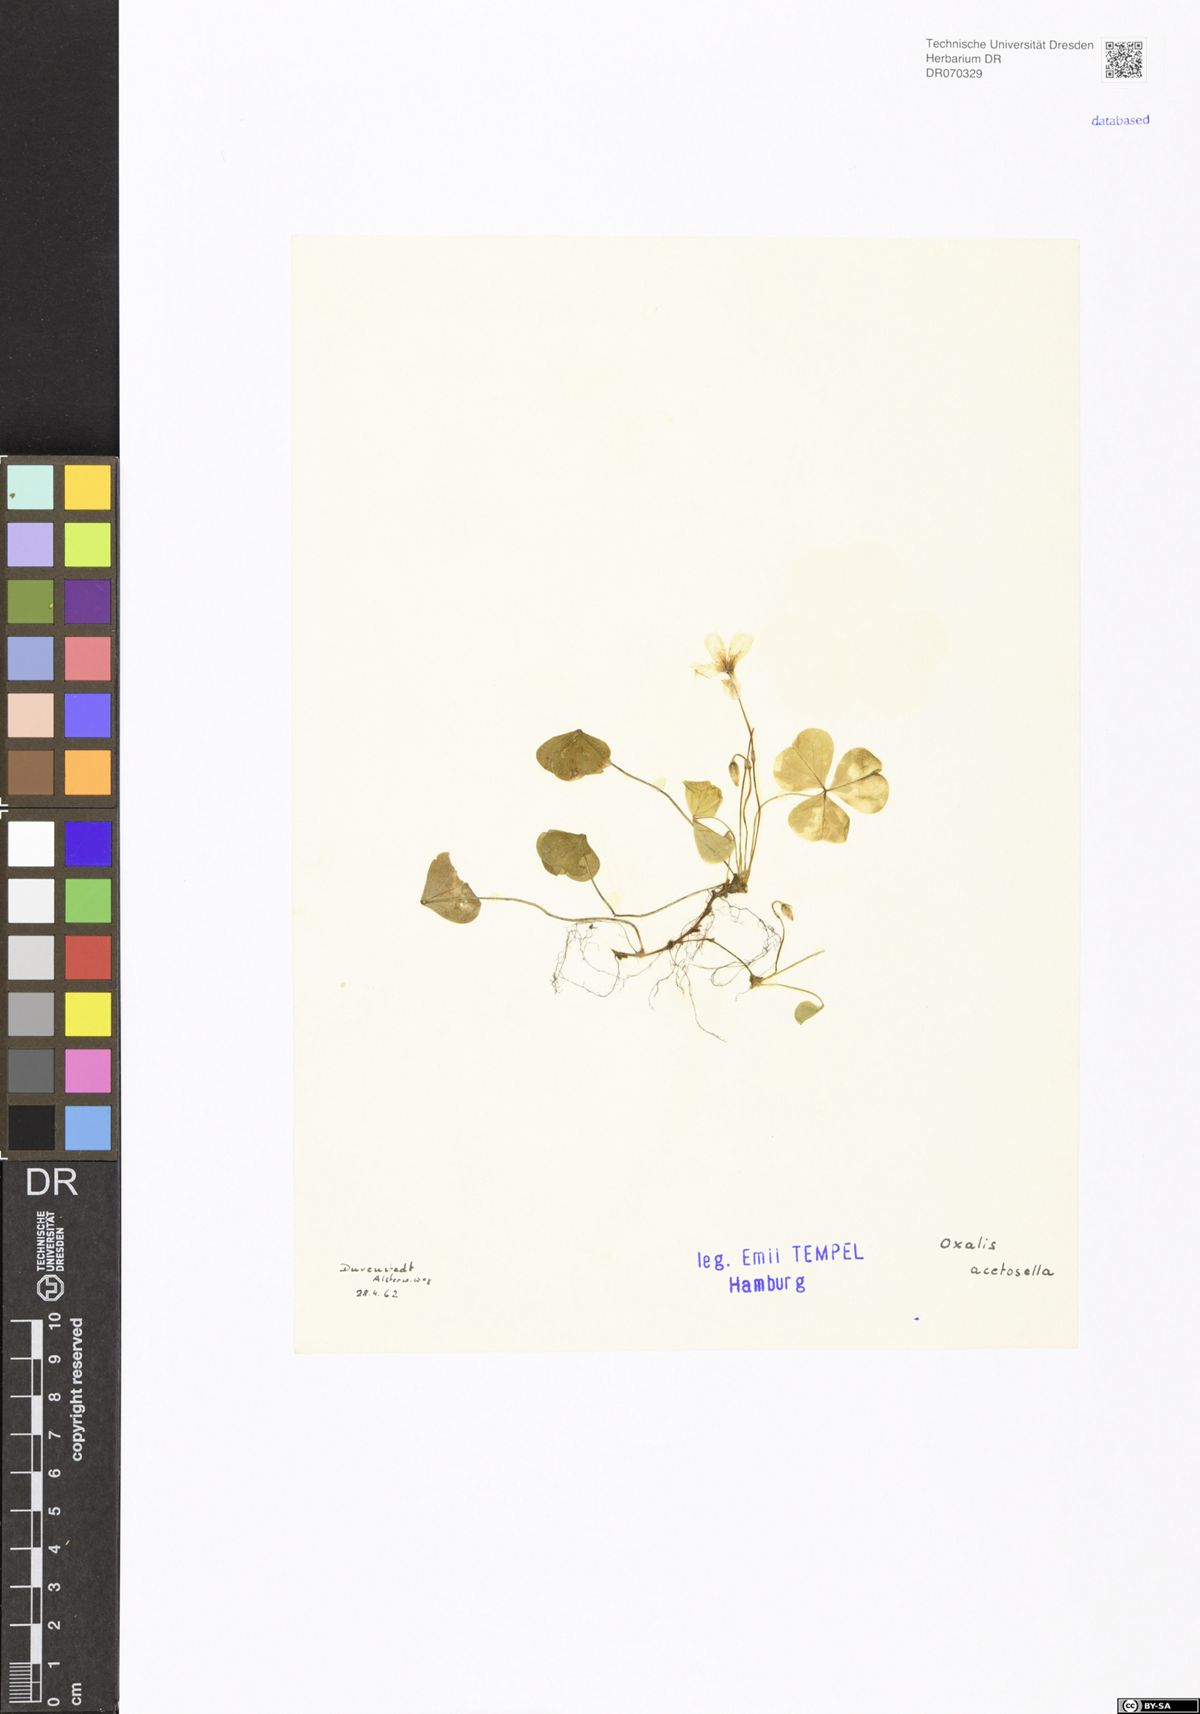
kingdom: Plantae
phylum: Tracheophyta
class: Magnoliopsida
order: Oxalidales
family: Oxalidaceae
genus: Oxalis
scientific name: Oxalis acetosella
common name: Wood-sorrel
